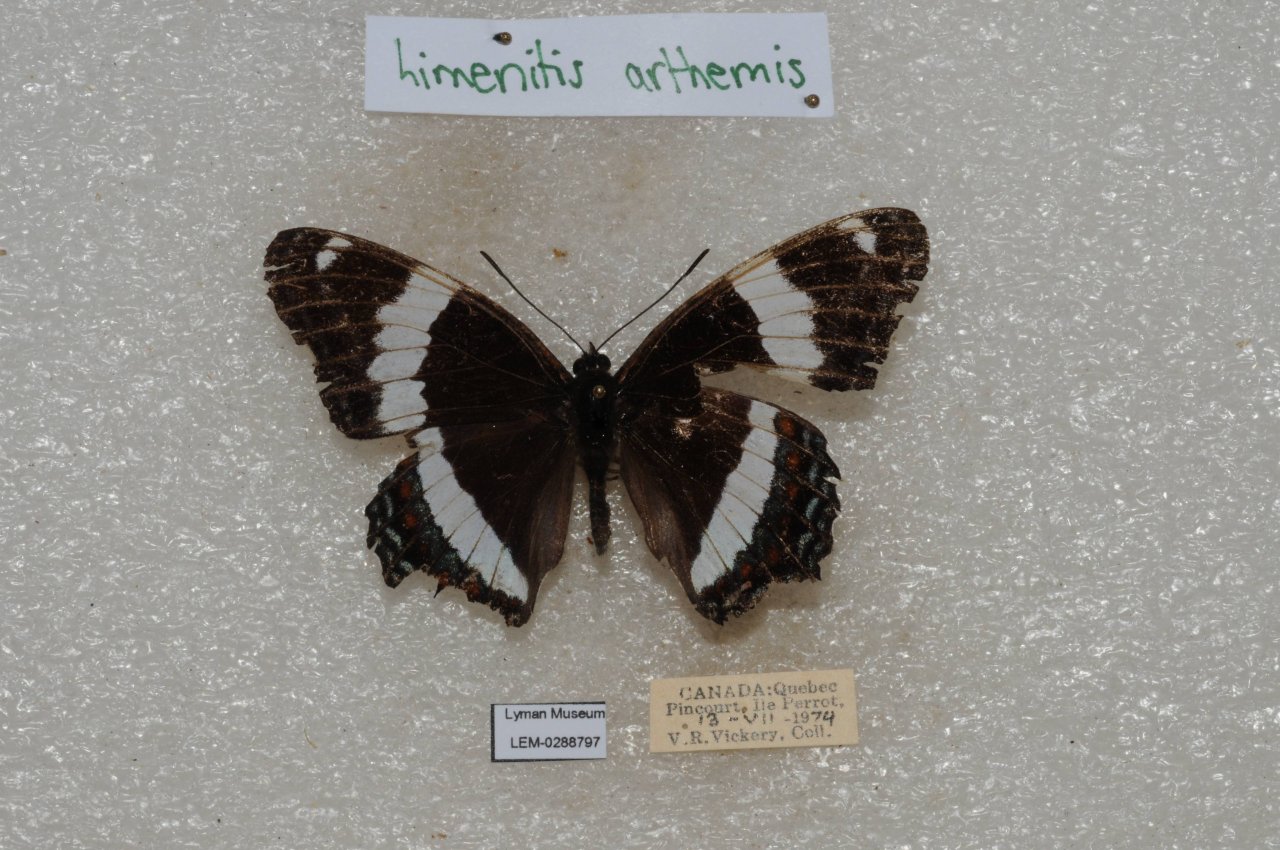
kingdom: Animalia
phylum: Arthropoda
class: Insecta
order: Lepidoptera
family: Nymphalidae
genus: Limenitis
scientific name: Limenitis arthemis
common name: Red-spotted Admiral
